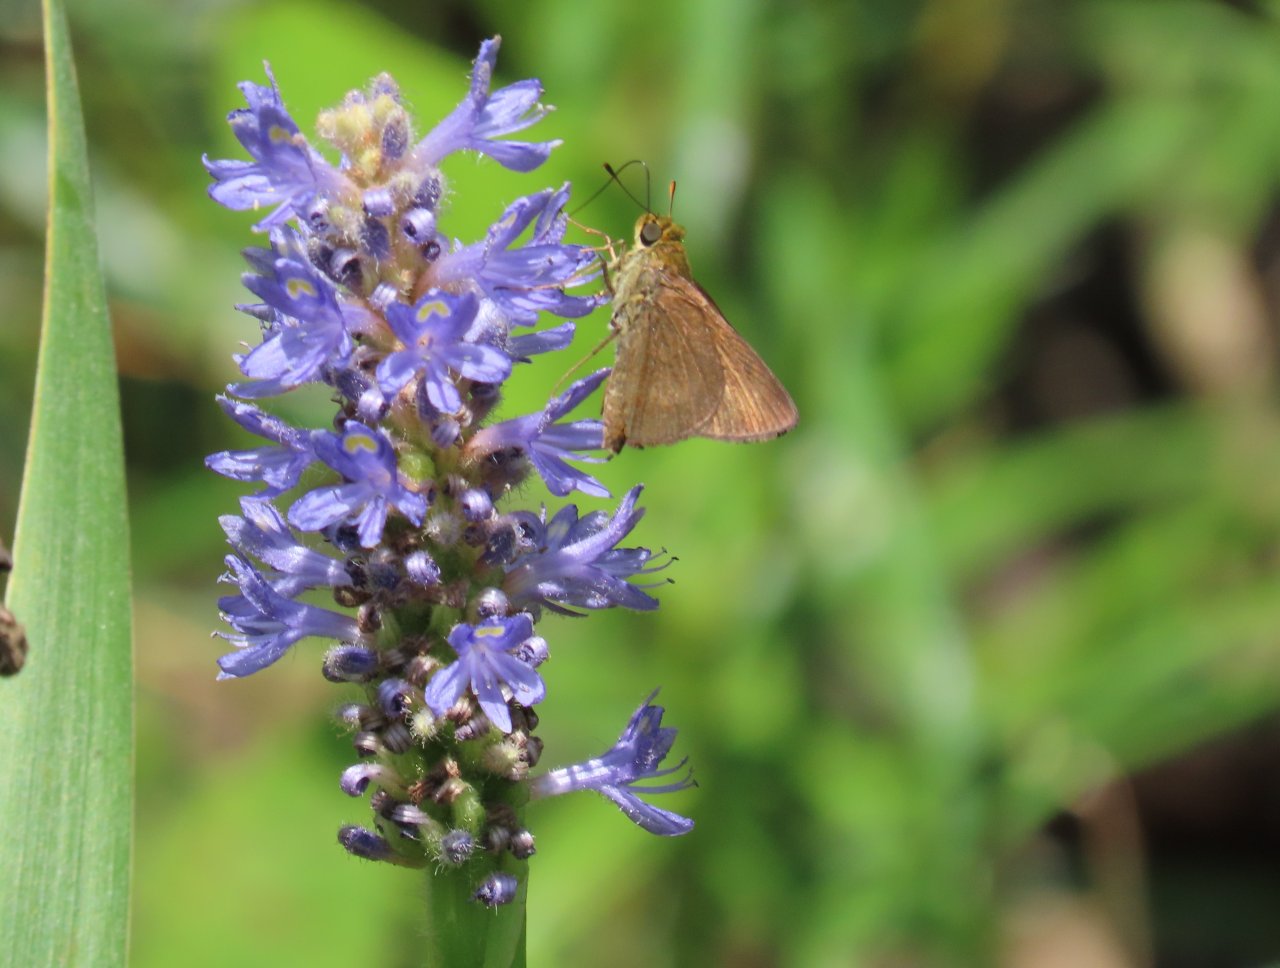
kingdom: Animalia
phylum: Arthropoda
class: Insecta
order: Lepidoptera
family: Hesperiidae
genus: Euphyes
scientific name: Euphyes vestris
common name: Dun Skipper
